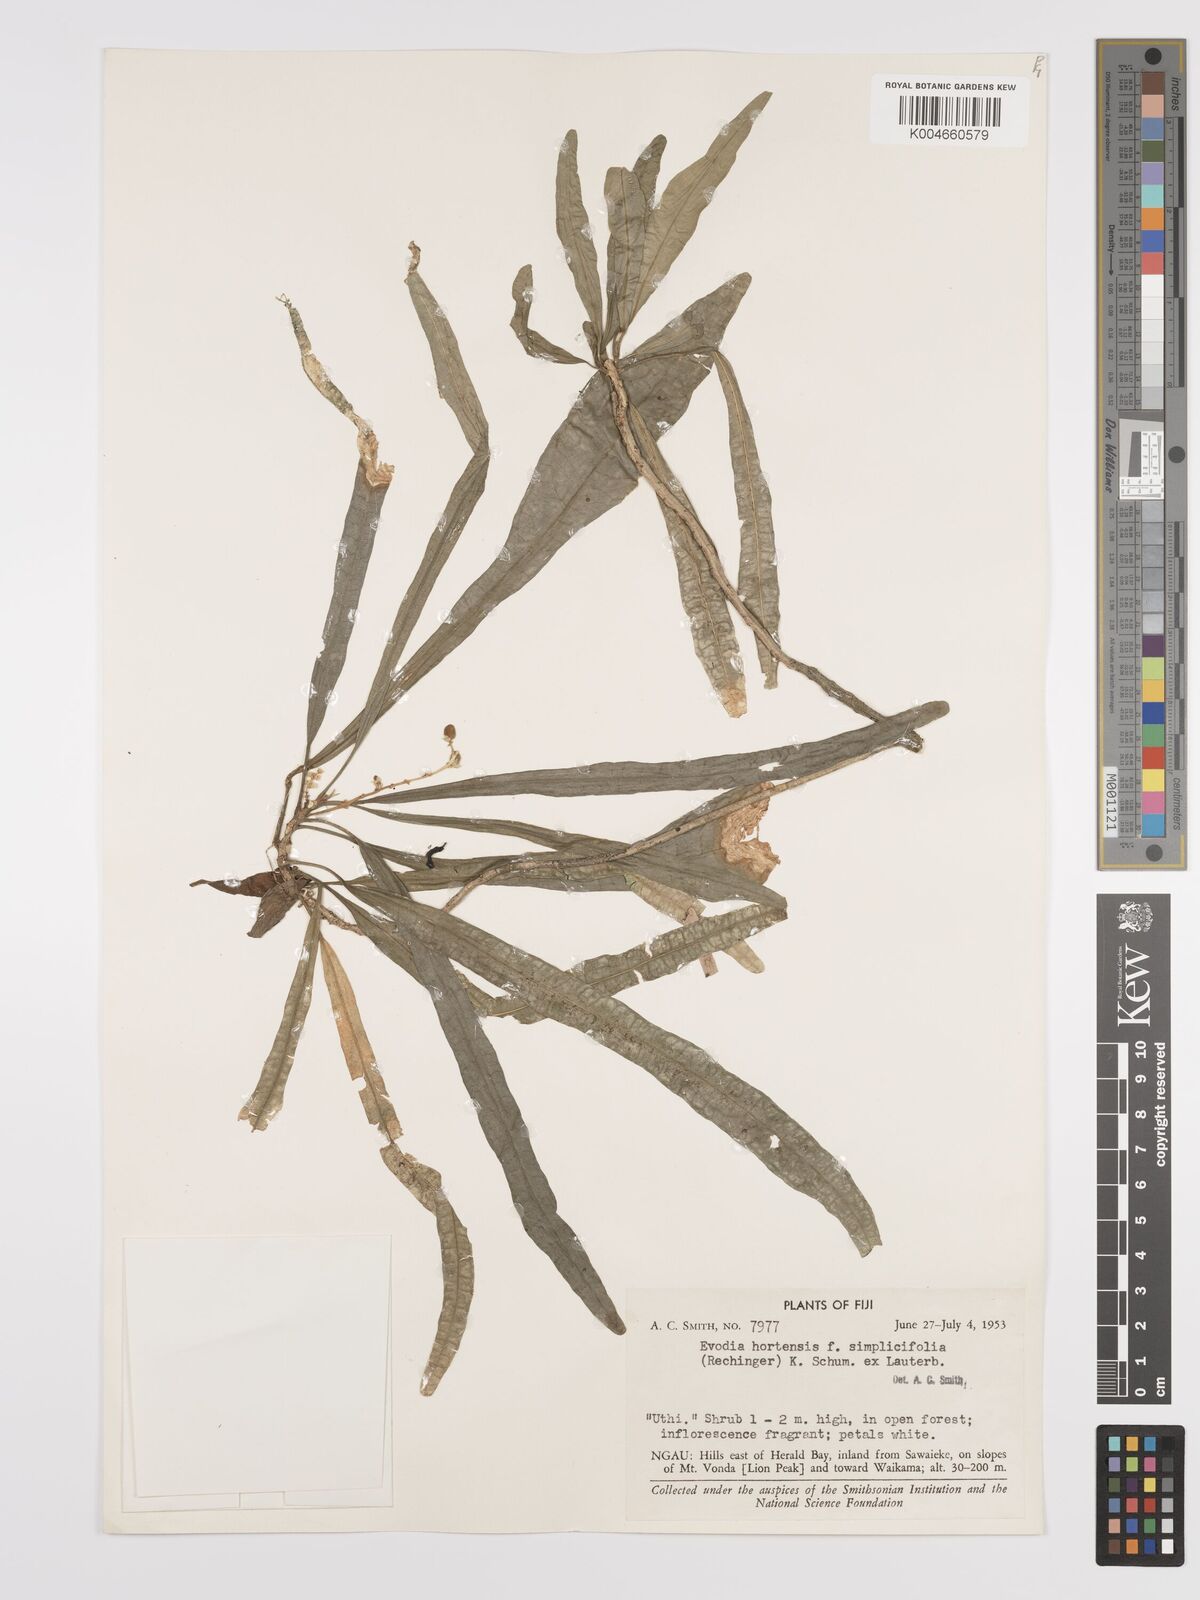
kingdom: Plantae
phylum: Tracheophyta
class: Magnoliopsida
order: Sapindales
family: Rutaceae
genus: Euodia
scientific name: Euodia hortensis
